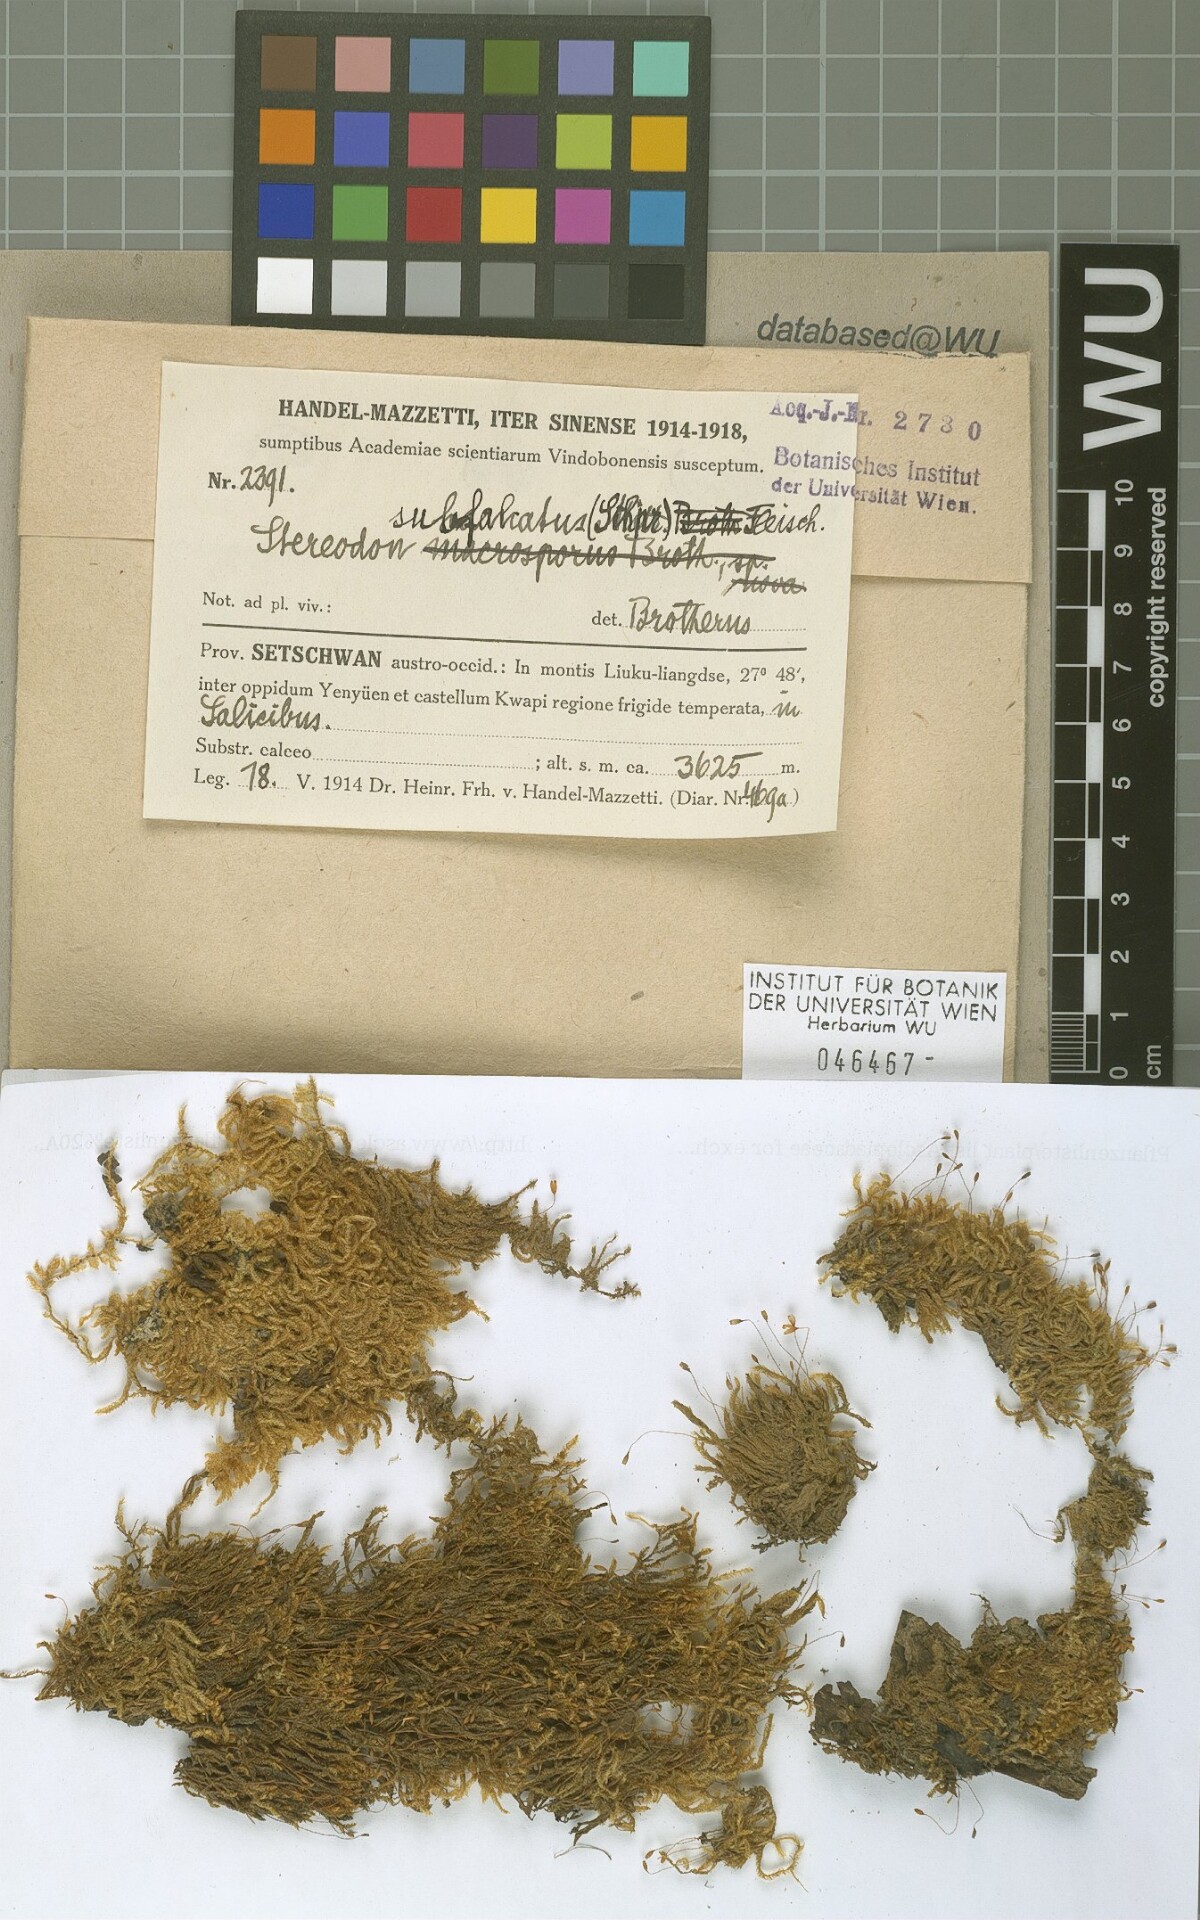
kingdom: Plantae
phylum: Bryophyta
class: Bryopsida
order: Hypnales
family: Pylaisiaceae
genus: Pylaisia
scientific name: Pylaisia falcata
